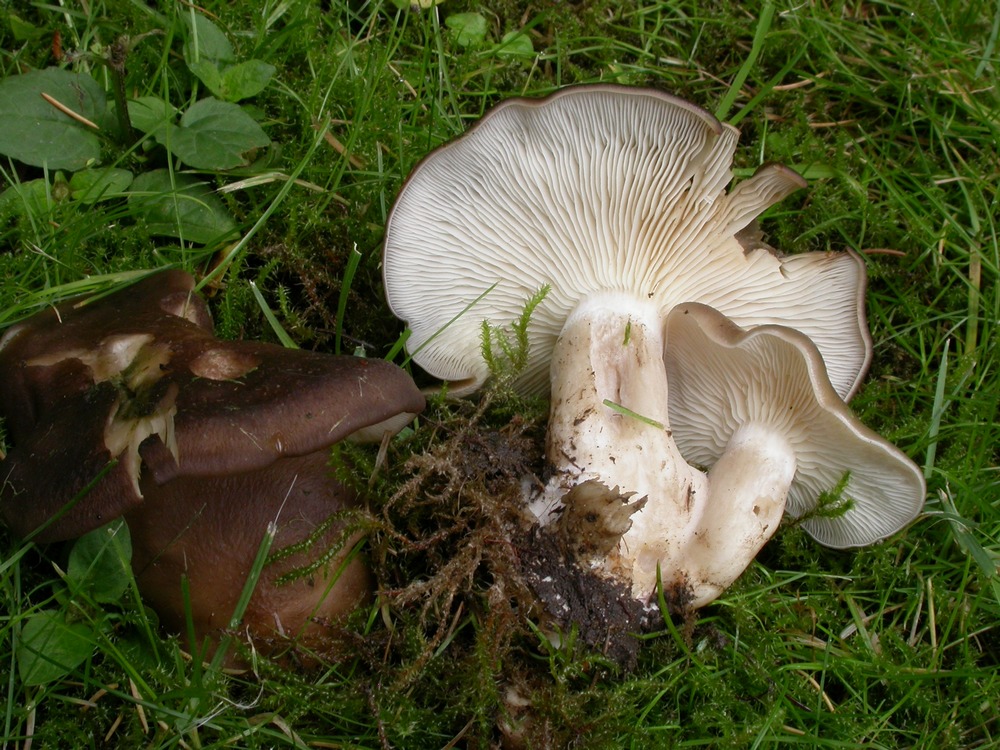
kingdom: Fungi
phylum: Basidiomycota
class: Agaricomycetes
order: Agaricales
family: Lyophyllaceae
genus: Lyophyllum
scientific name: Lyophyllum decastes
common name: røggrå gråblad
